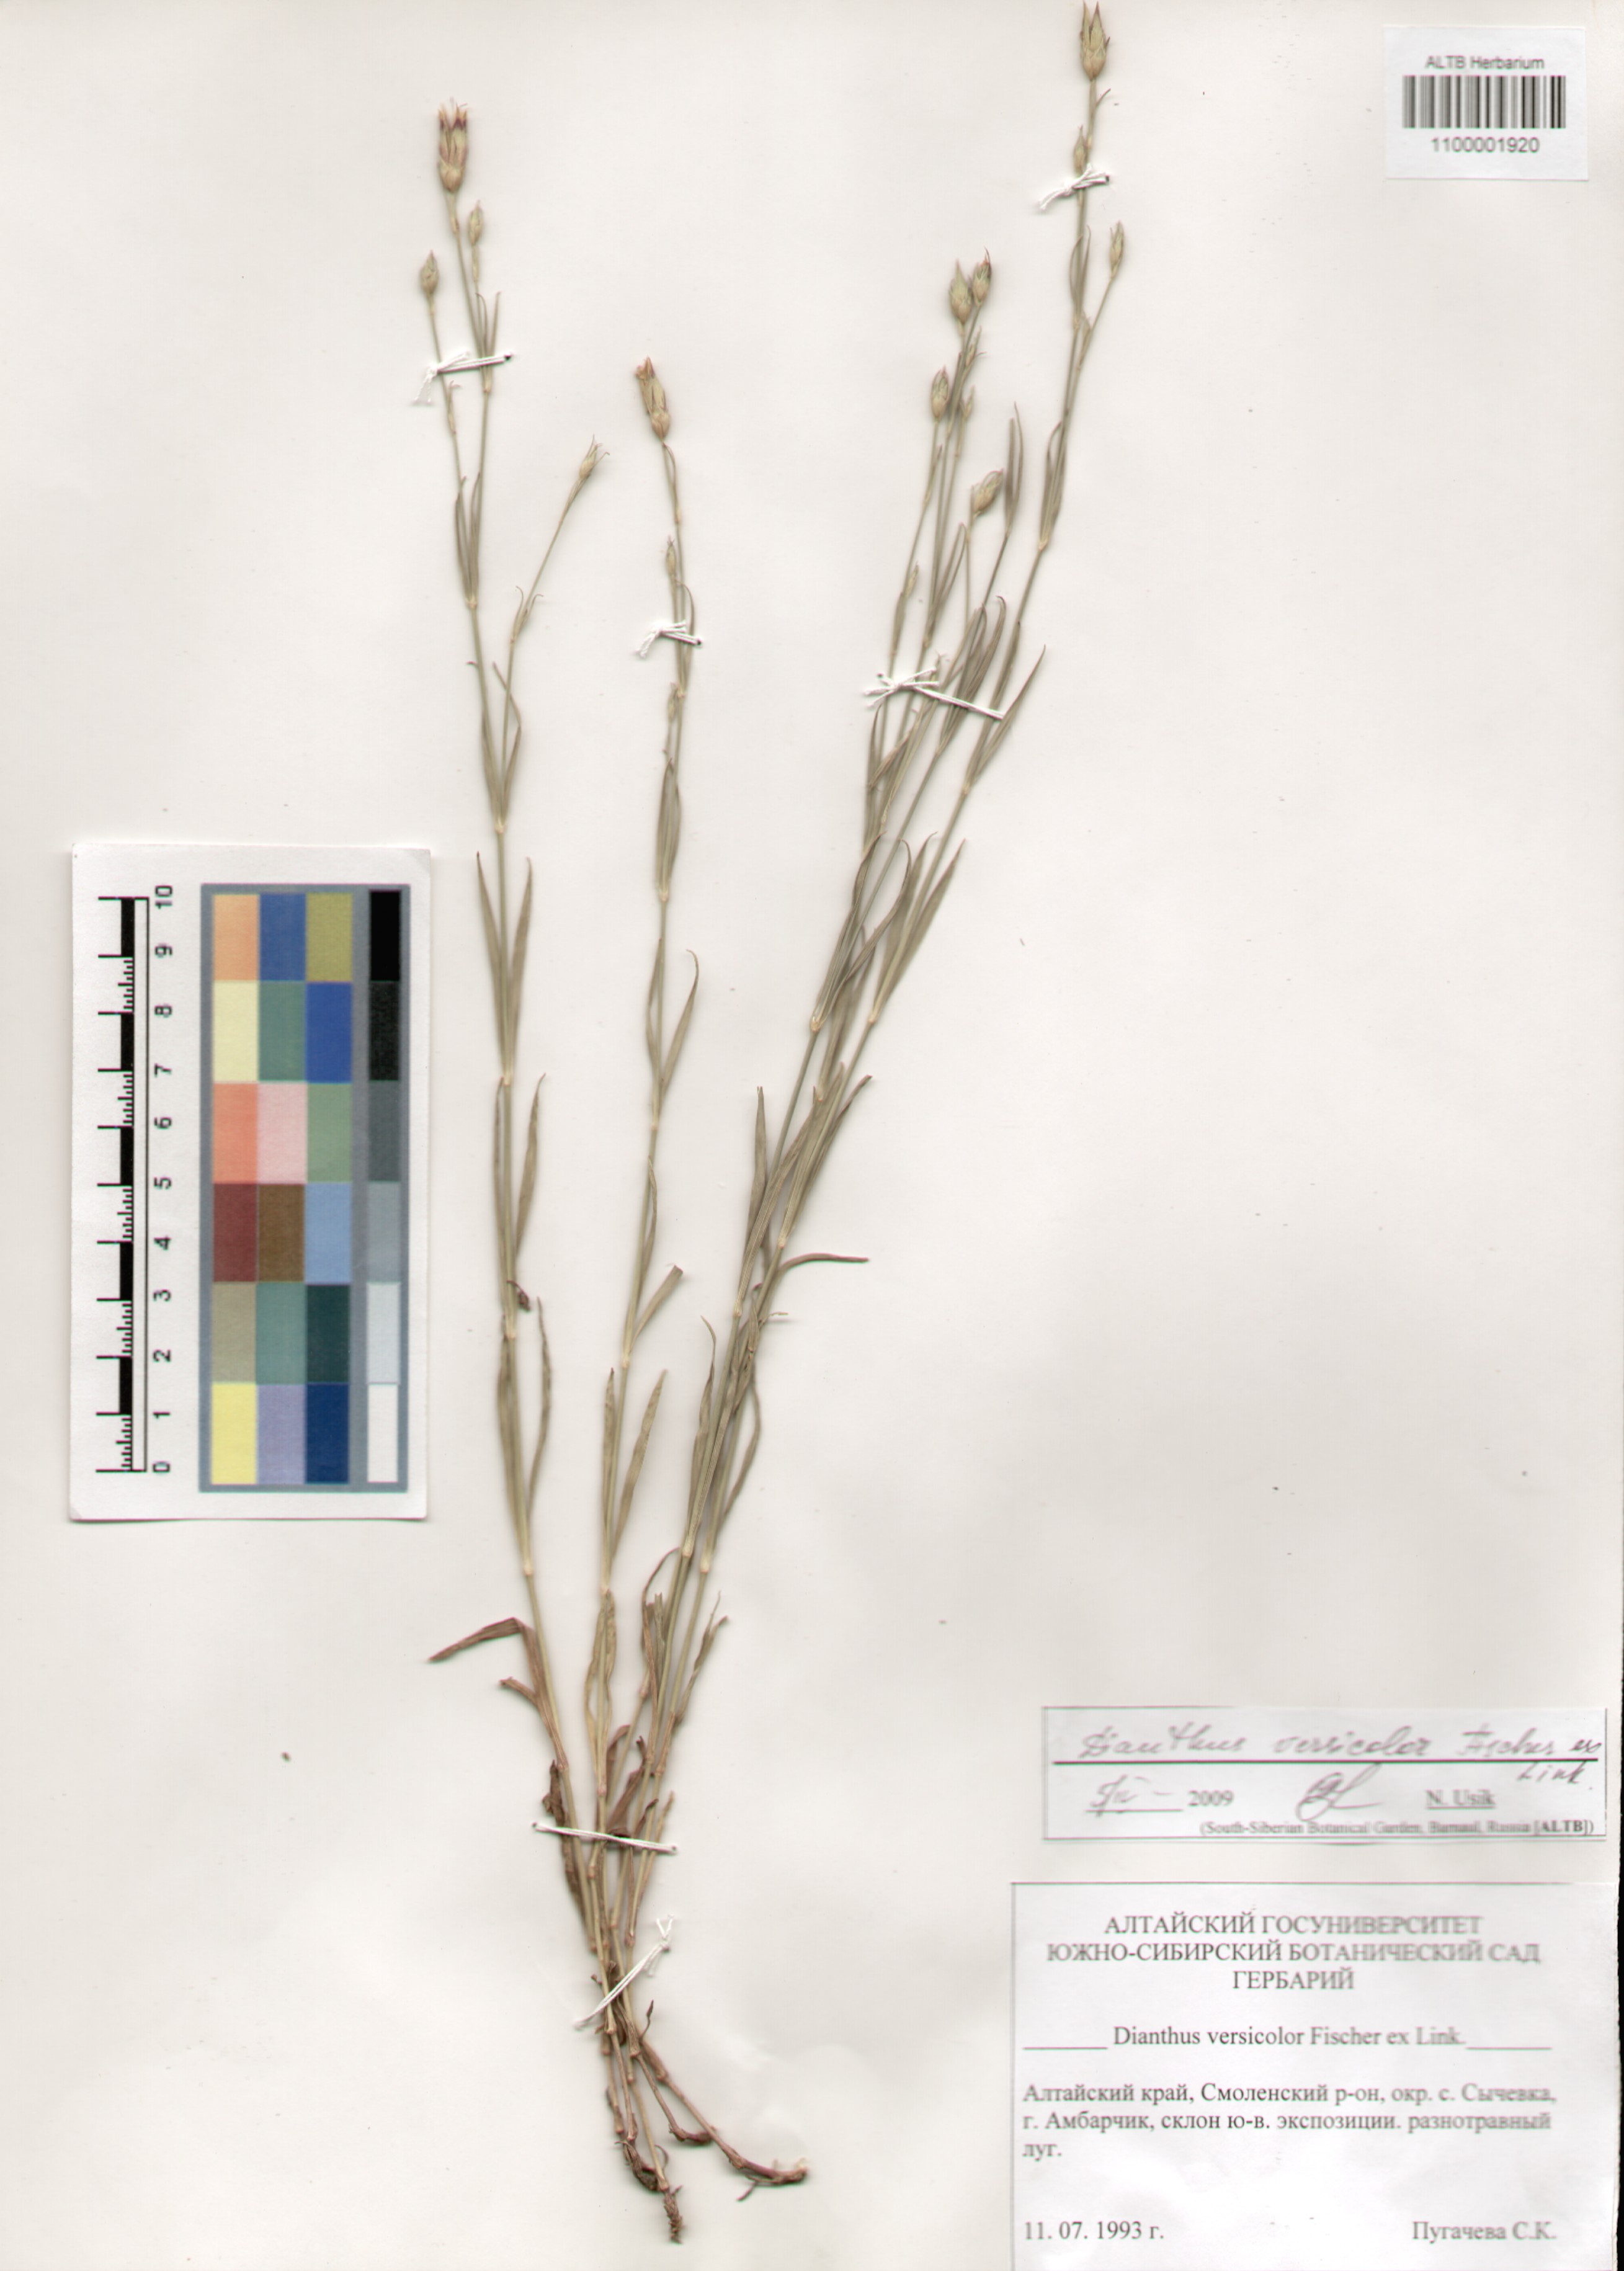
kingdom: Plantae
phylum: Tracheophyta
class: Magnoliopsida
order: Caryophyllales
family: Caryophyllaceae
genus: Dianthus
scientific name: Dianthus chinensis
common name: Rainbow pink
